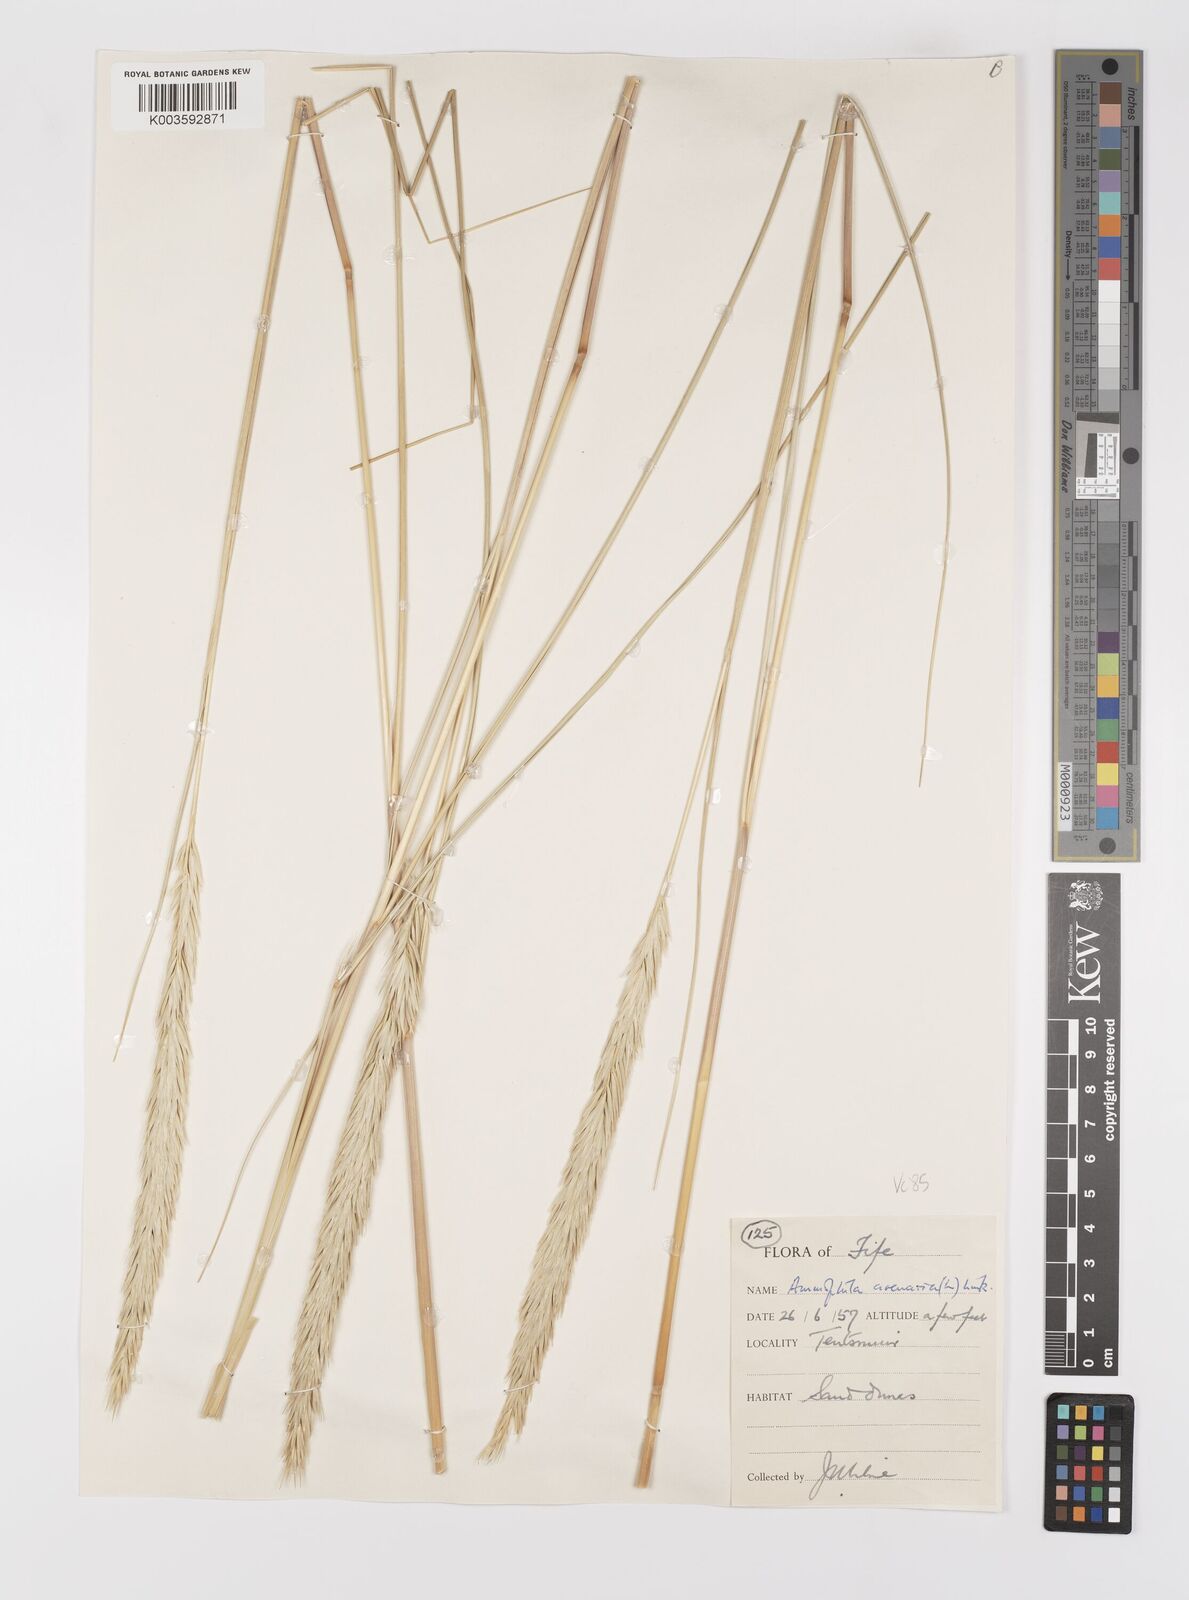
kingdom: Plantae
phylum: Tracheophyta
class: Liliopsida
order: Poales
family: Poaceae
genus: Calamagrostis
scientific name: Calamagrostis arenaria
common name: European beachgrass
